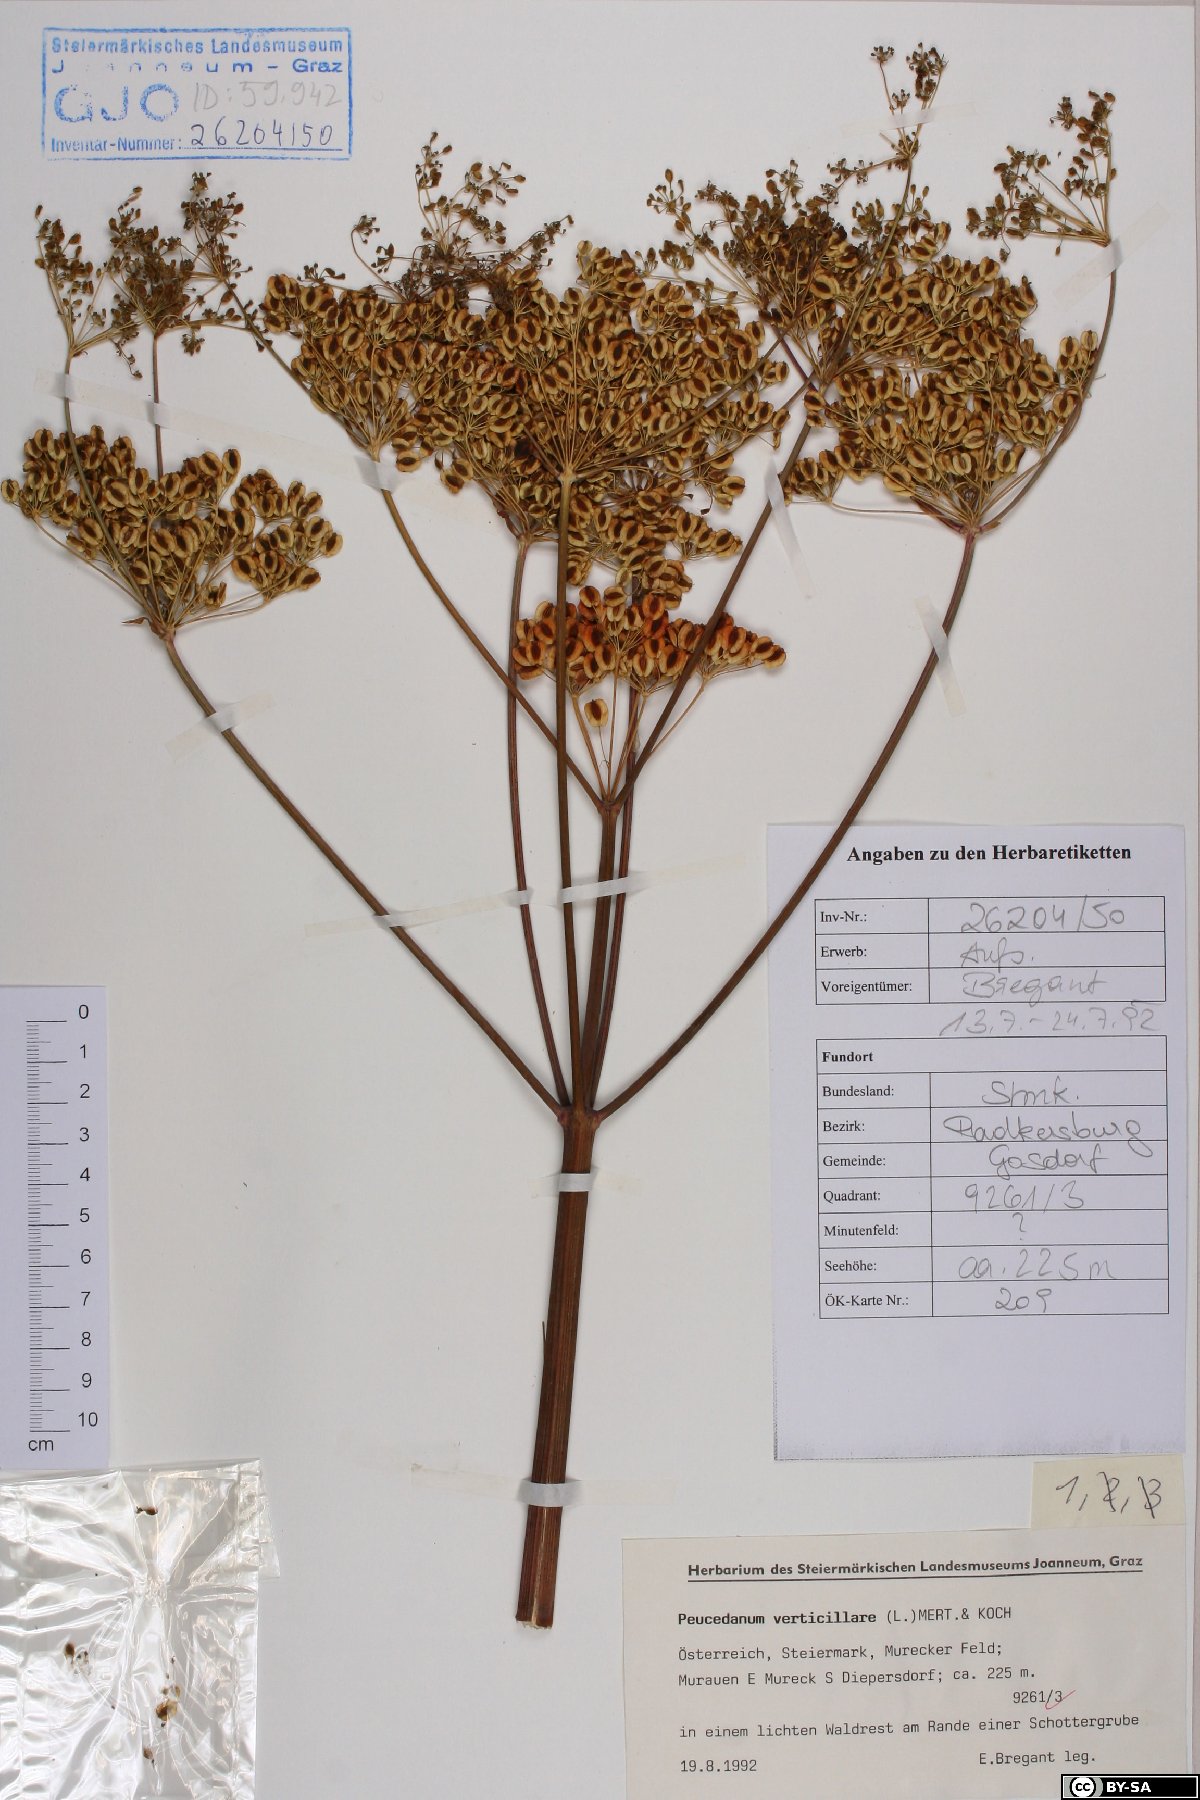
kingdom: Plantae
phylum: Tracheophyta
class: Magnoliopsida
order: Apiales
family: Apiaceae
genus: Tommasinia
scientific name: Tommasinia altissima
